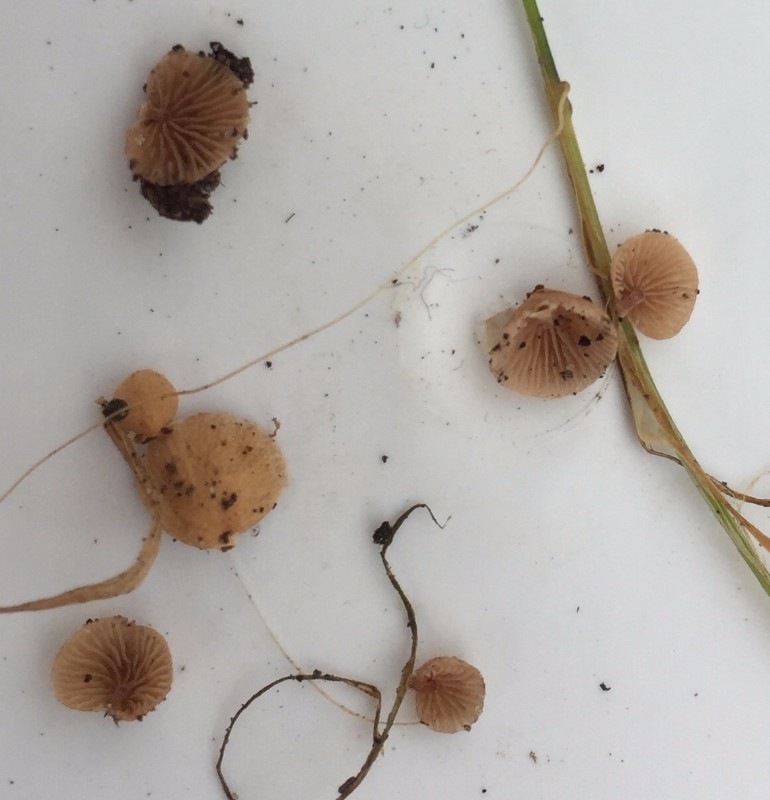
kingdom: Fungi
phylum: Basidiomycota
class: Agaricomycetes
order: Agaricales
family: Strophariaceae
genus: Deconica
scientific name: Deconica phillipsii
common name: almindelig stråhat
